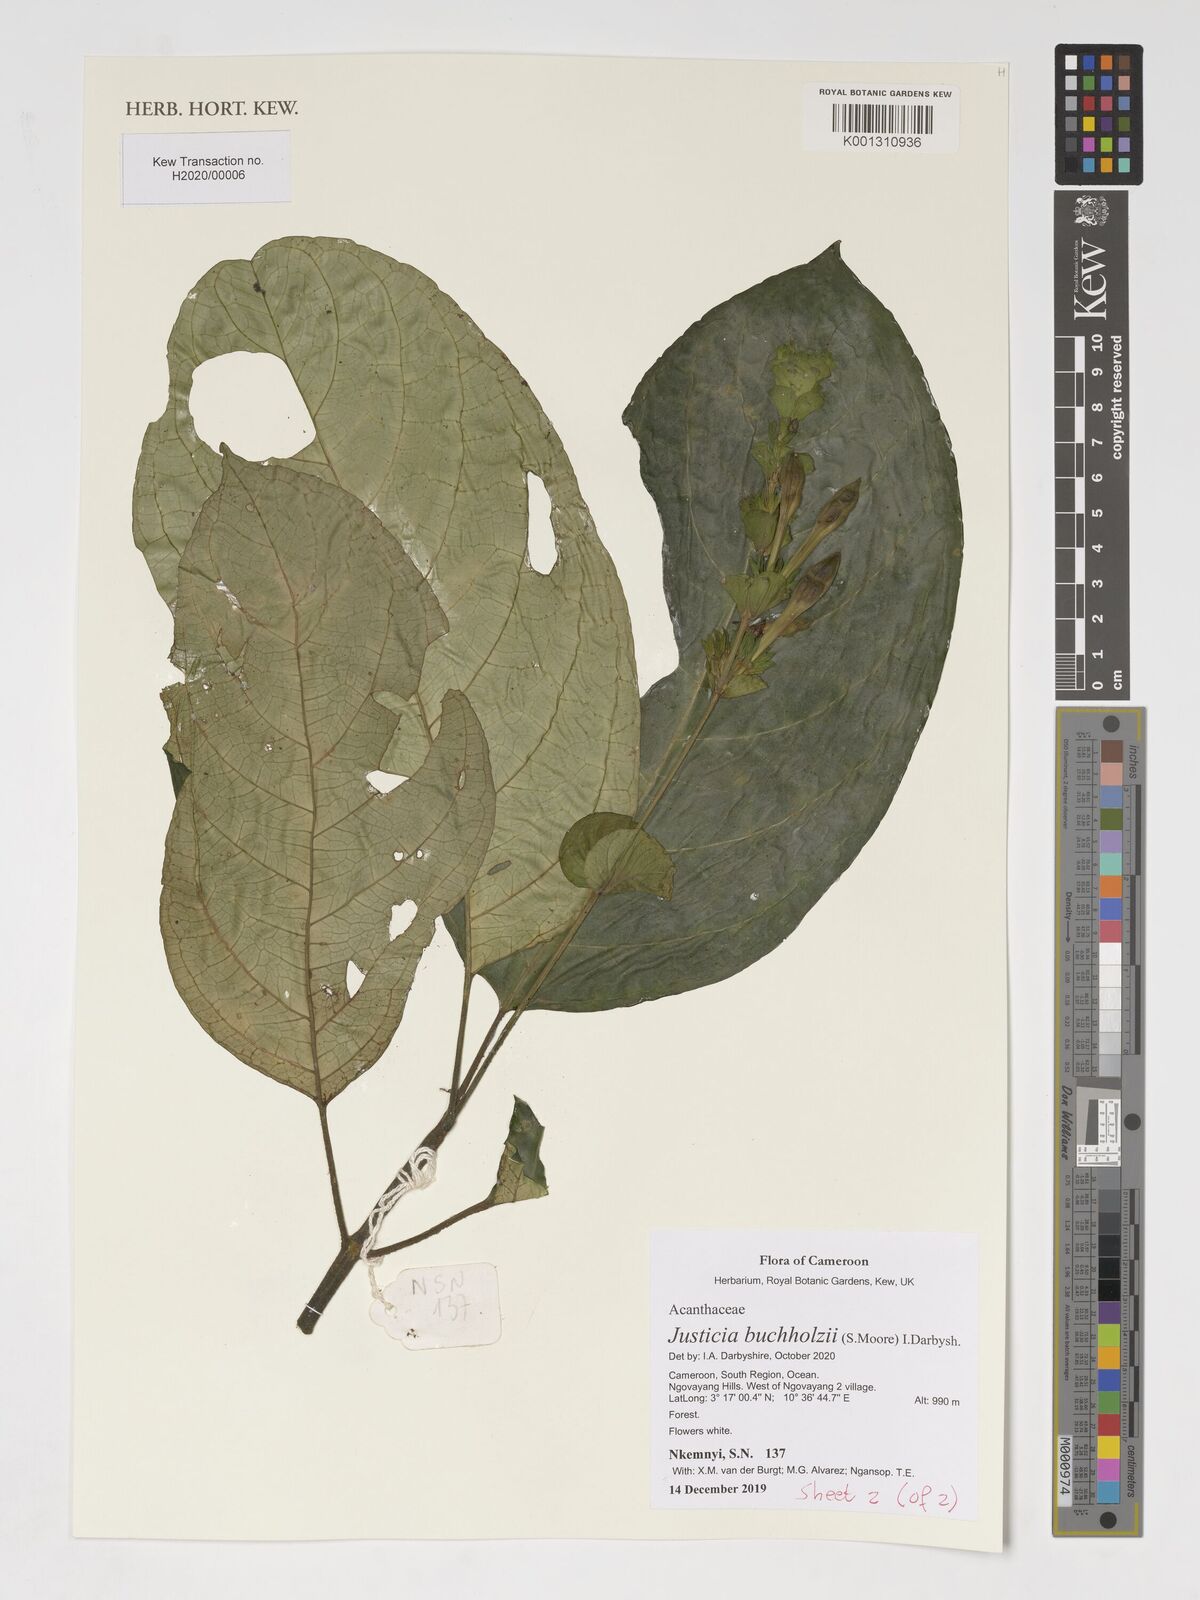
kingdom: Plantae
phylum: Tracheophyta
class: Magnoliopsida
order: Lamiales
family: Acanthaceae
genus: Justicia
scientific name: Justicia buchholzii
